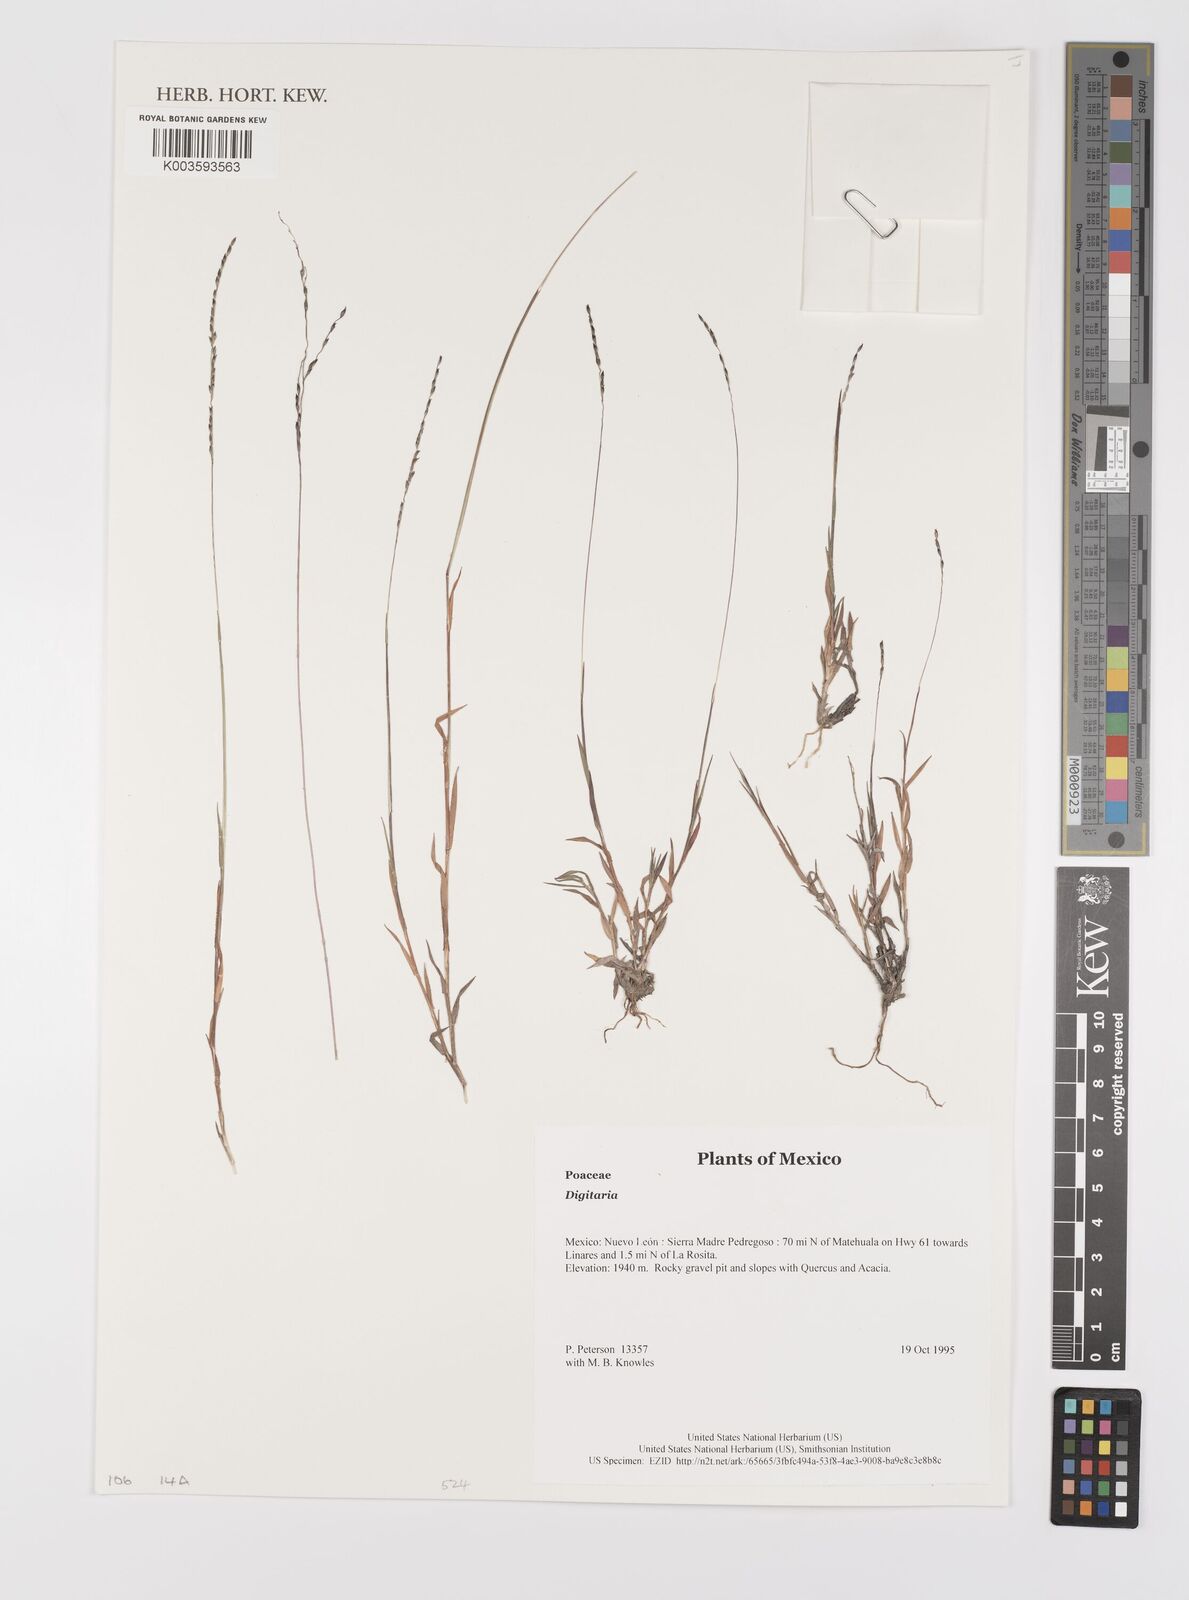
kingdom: Plantae
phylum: Tracheophyta
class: Liliopsida
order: Poales
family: Poaceae
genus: Digitaria
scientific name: Digitaria spec
